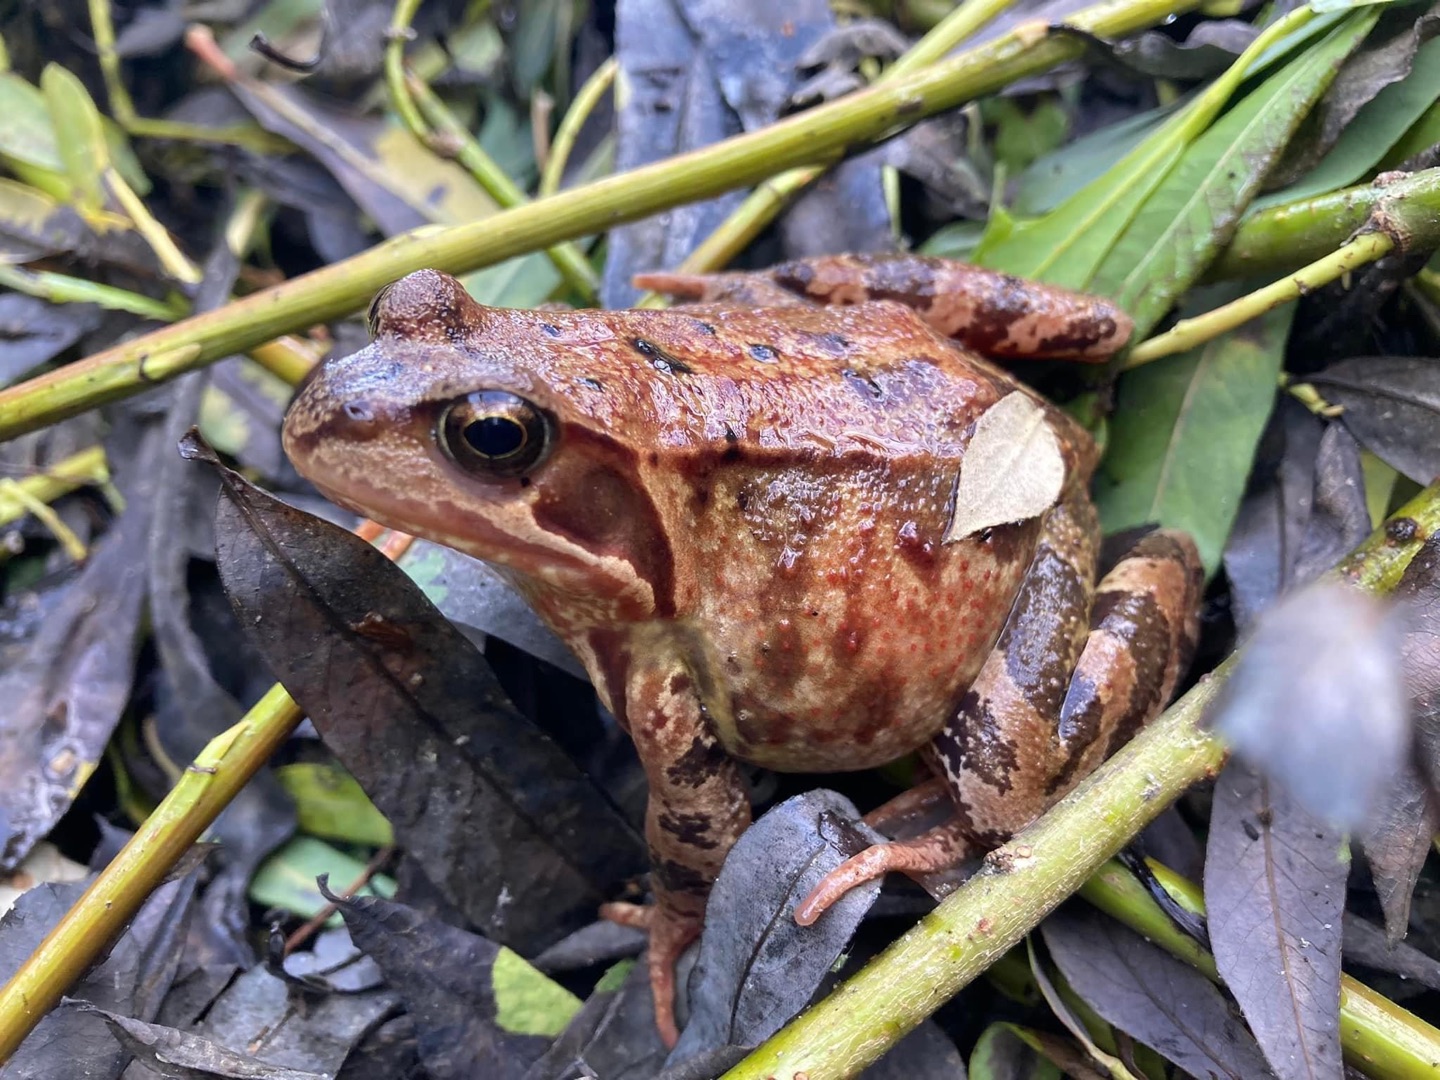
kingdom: Animalia
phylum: Chordata
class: Amphibia
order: Anura
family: Ranidae
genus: Rana
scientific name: Rana temporaria
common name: Butsnudet frø
